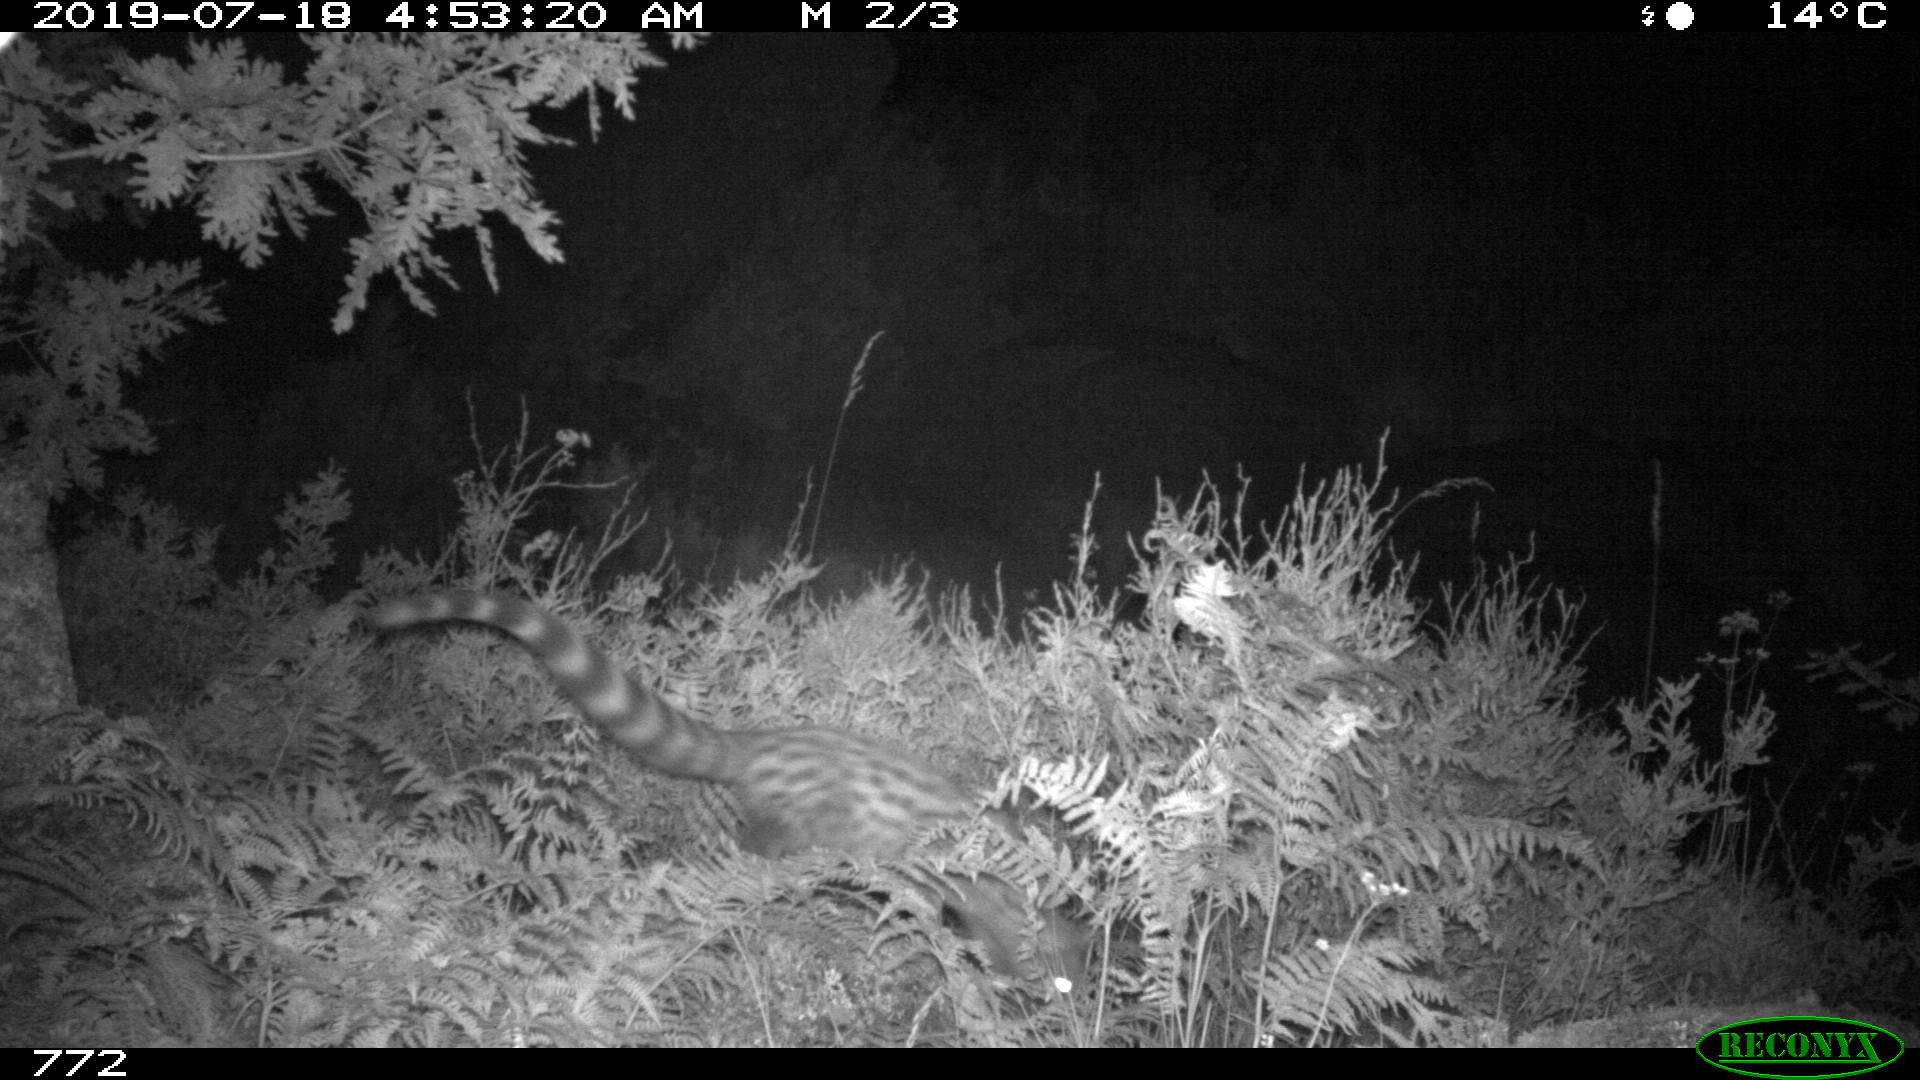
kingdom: Animalia
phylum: Chordata
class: Mammalia
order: Carnivora
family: Viverridae
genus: Genetta
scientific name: Genetta genetta
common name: Common genet
